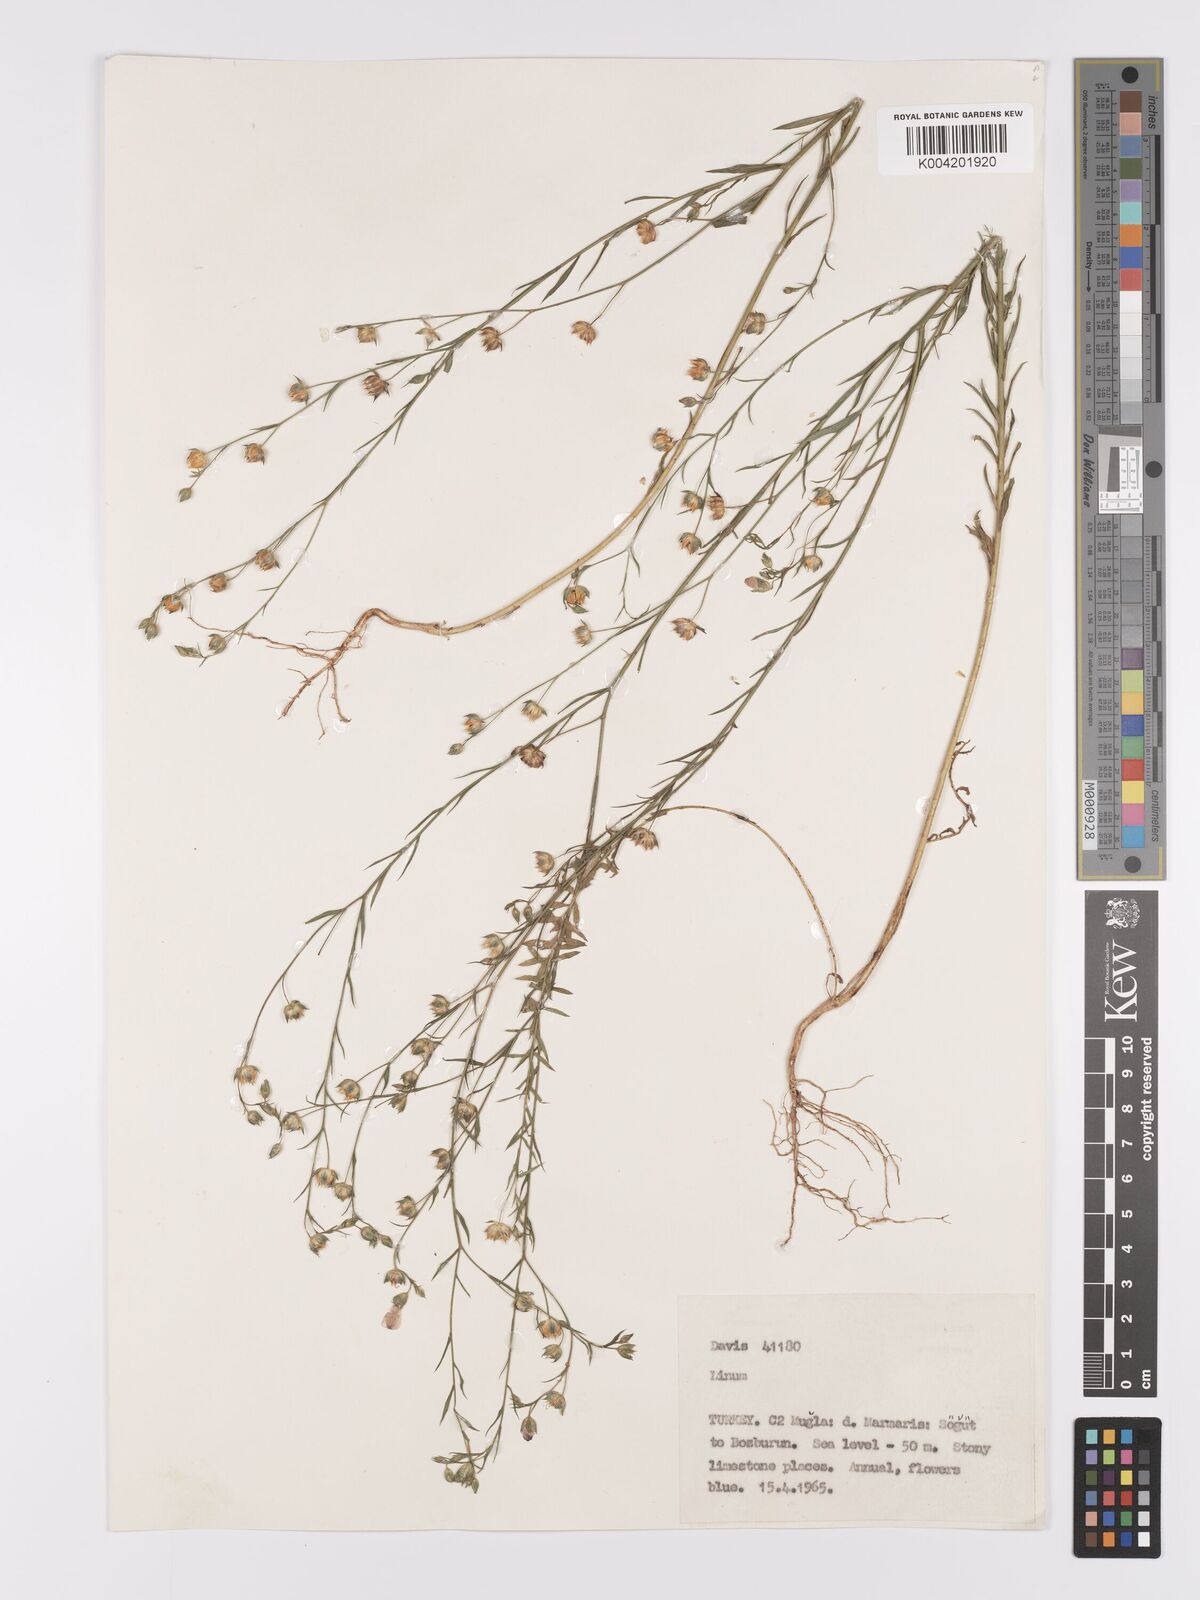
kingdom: Plantae
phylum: Tracheophyta
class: Magnoliopsida
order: Malpighiales
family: Linaceae
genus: Linum
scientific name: Linum
